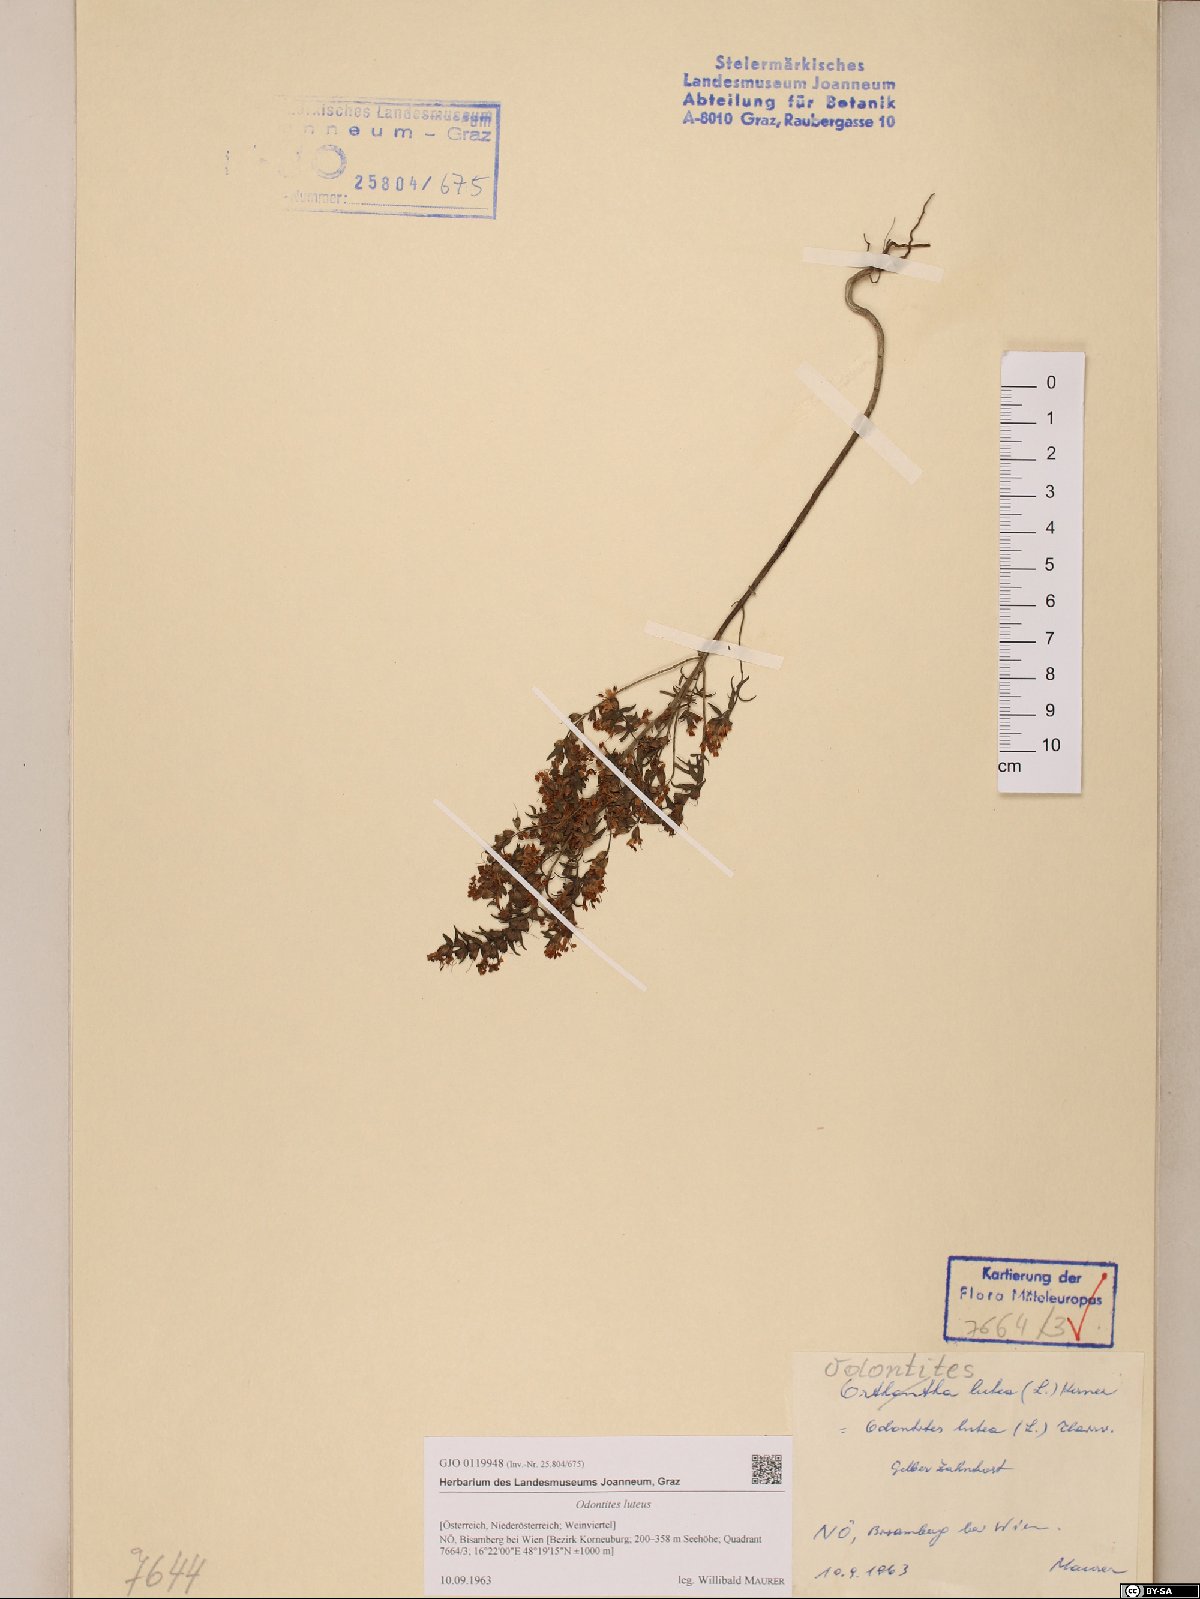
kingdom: Plantae
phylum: Tracheophyta
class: Magnoliopsida
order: Lamiales
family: Orobanchaceae
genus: Odontites
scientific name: Odontites luteus
